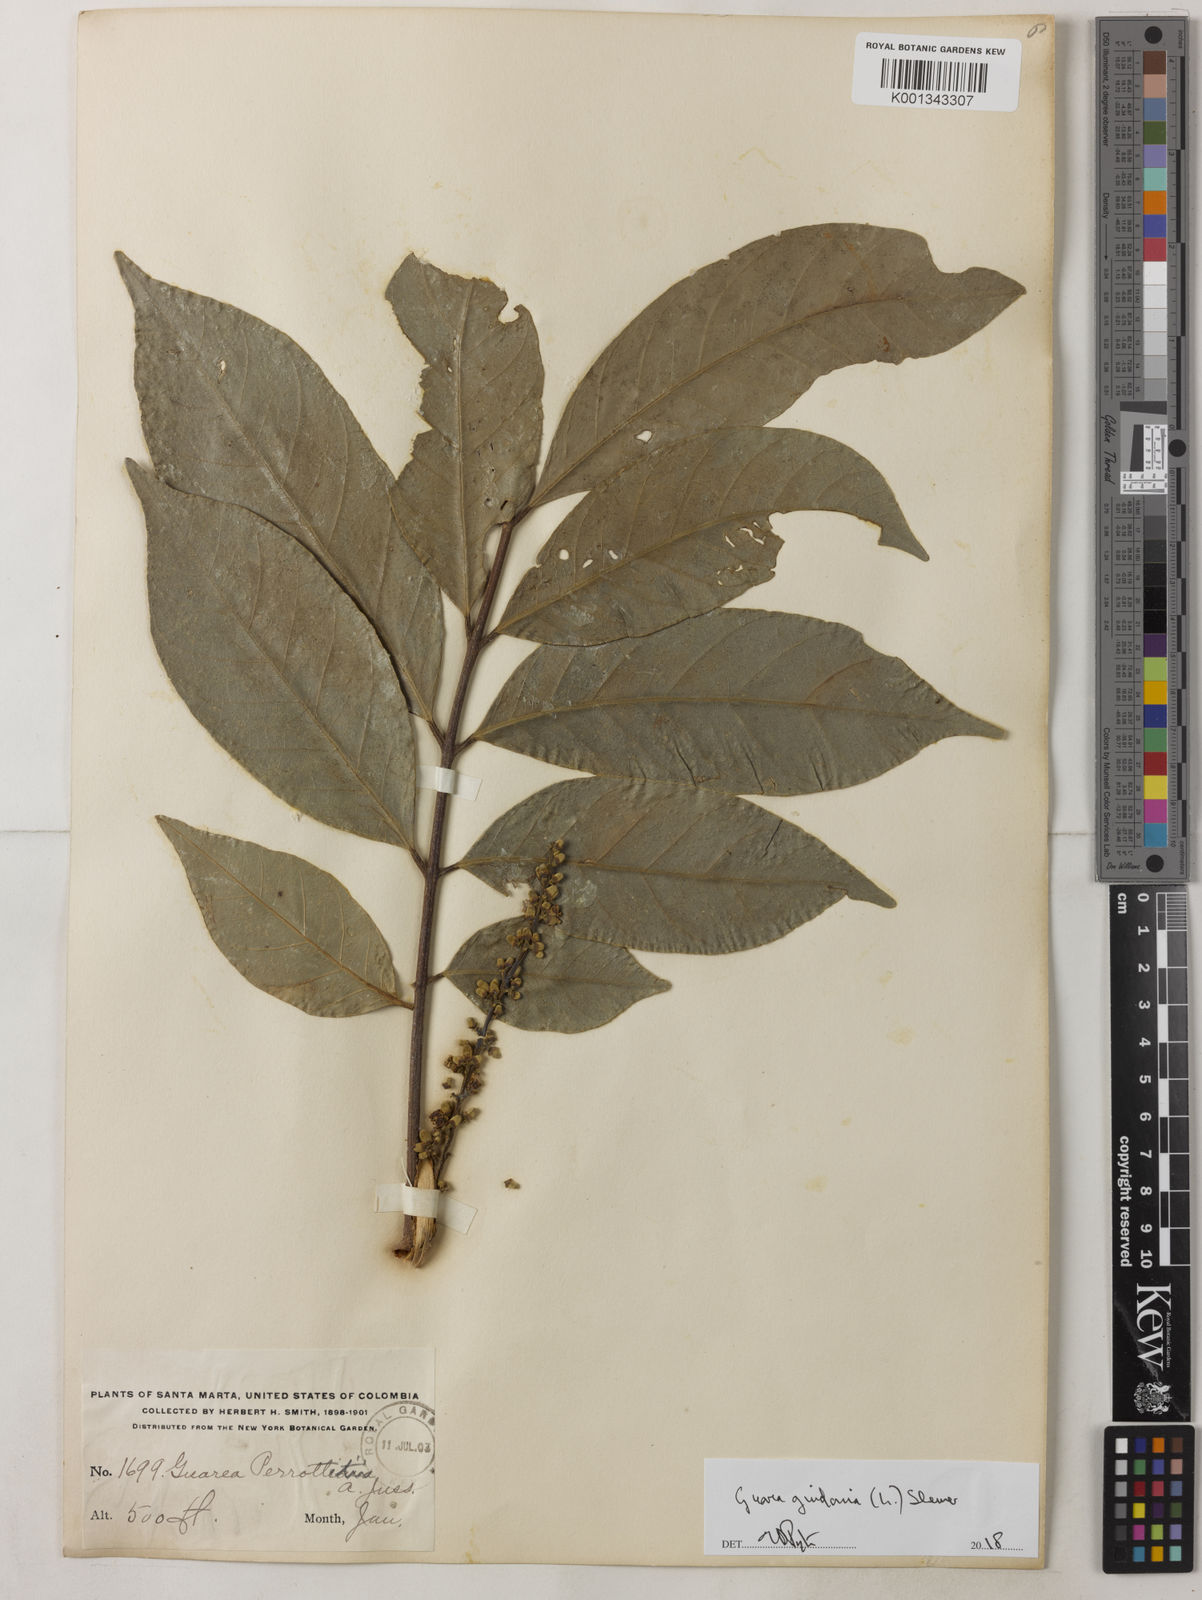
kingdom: Plantae
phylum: Tracheophyta
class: Magnoliopsida
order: Sapindales
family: Meliaceae
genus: Guarea
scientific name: Guarea guidonia
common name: American muskwood
